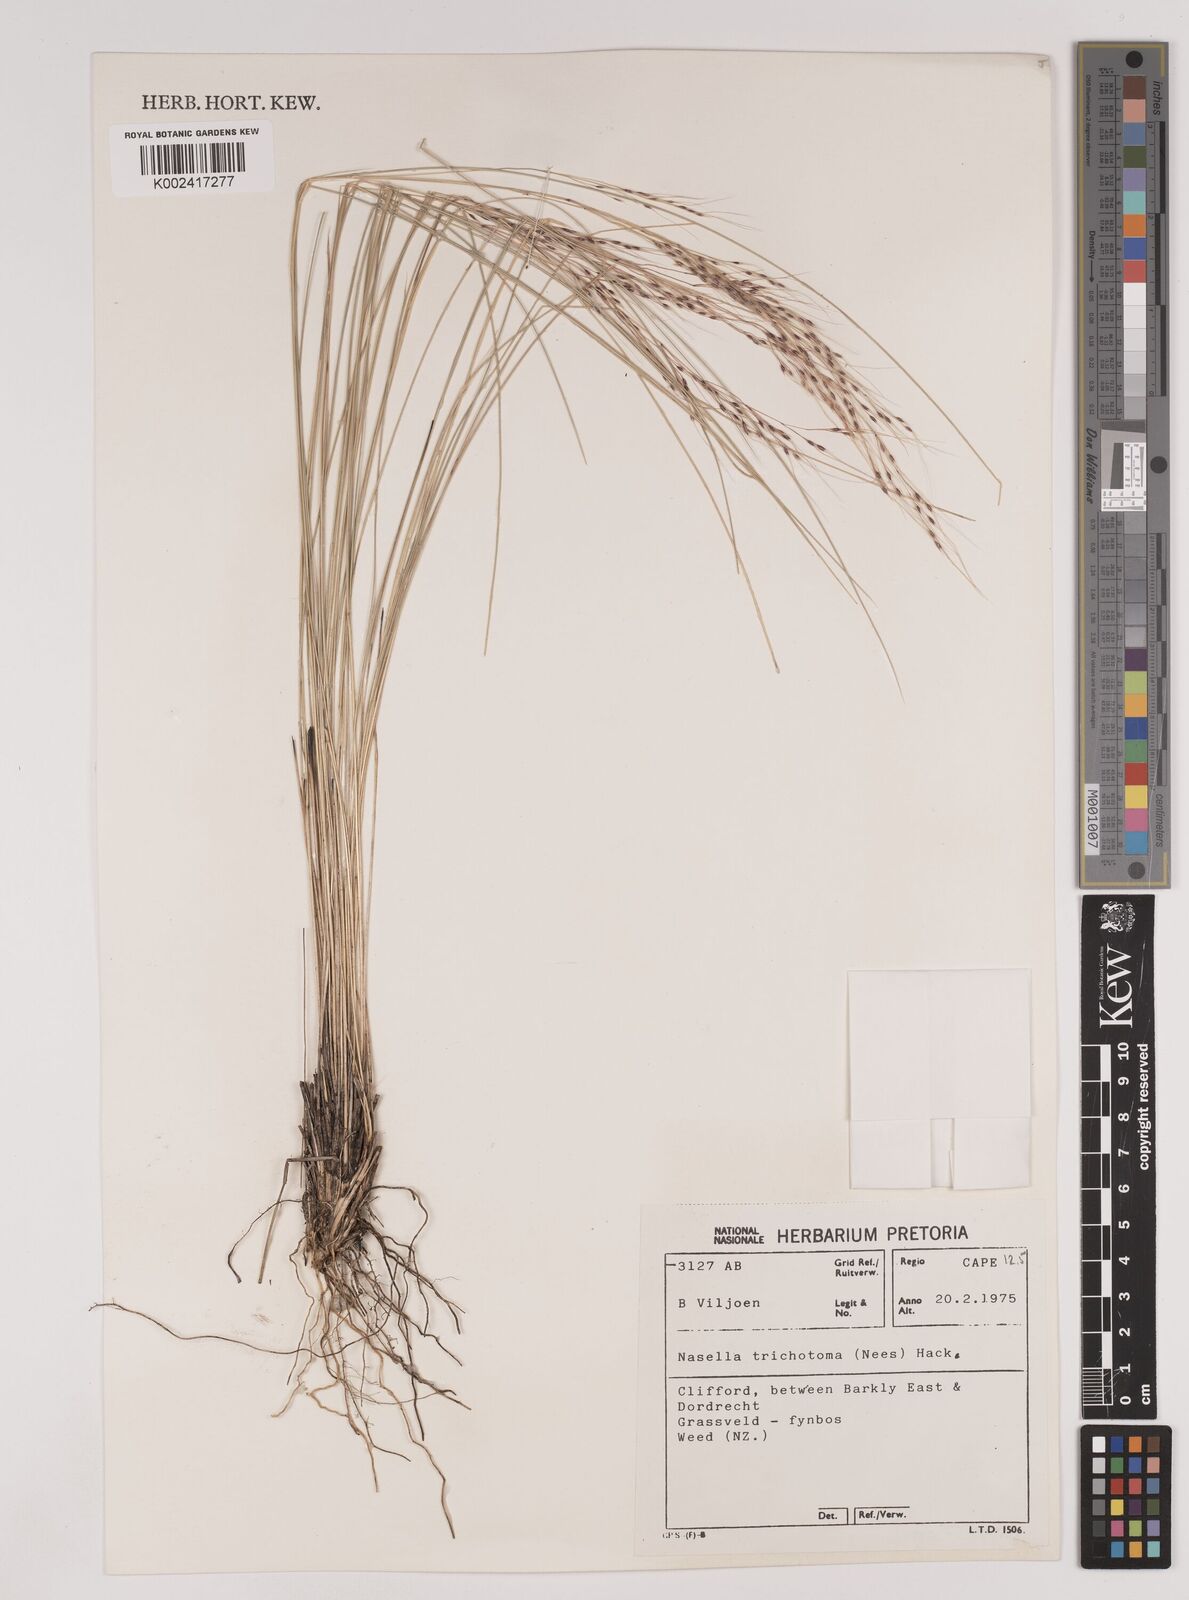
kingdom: Plantae
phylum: Tracheophyta
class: Liliopsida
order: Poales
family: Poaceae
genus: Nassella
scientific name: Nassella trichotoma
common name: Serrated tussock grass
